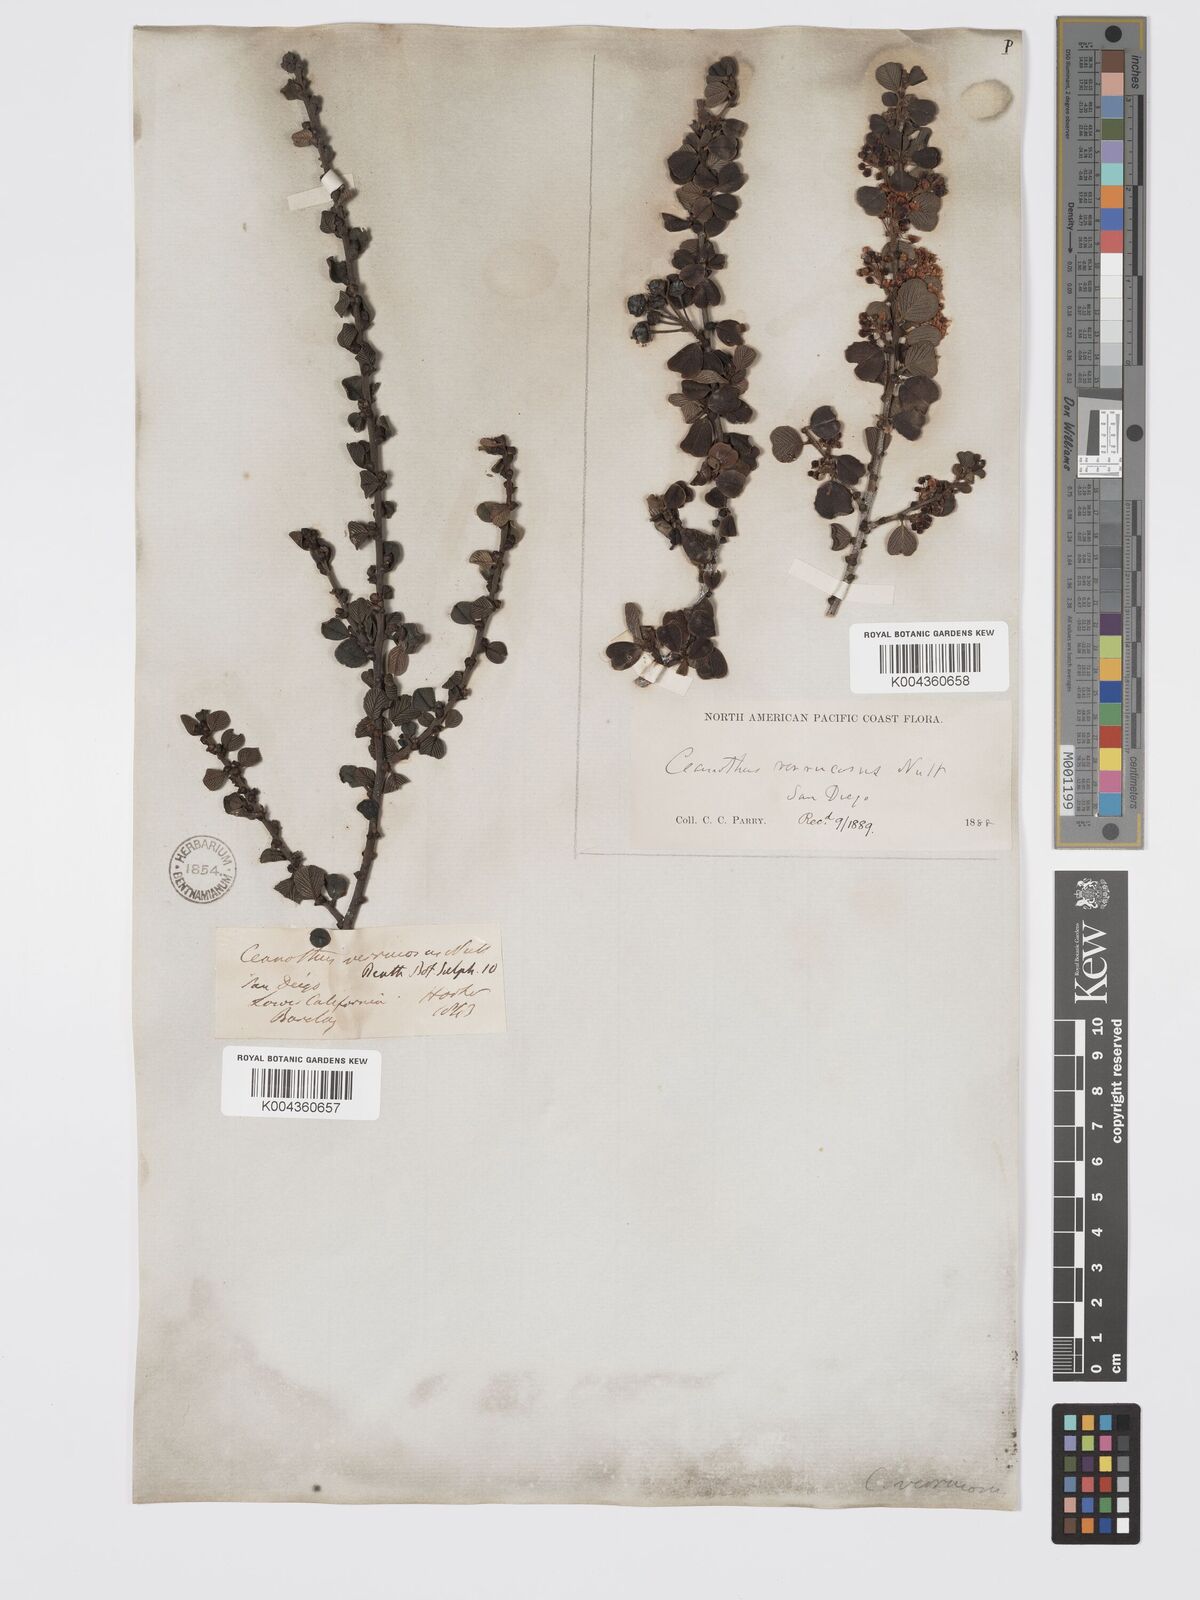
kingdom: Plantae
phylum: Tracheophyta
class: Magnoliopsida
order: Rosales
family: Rhamnaceae
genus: Ceanothus
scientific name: Ceanothus verrucosus
